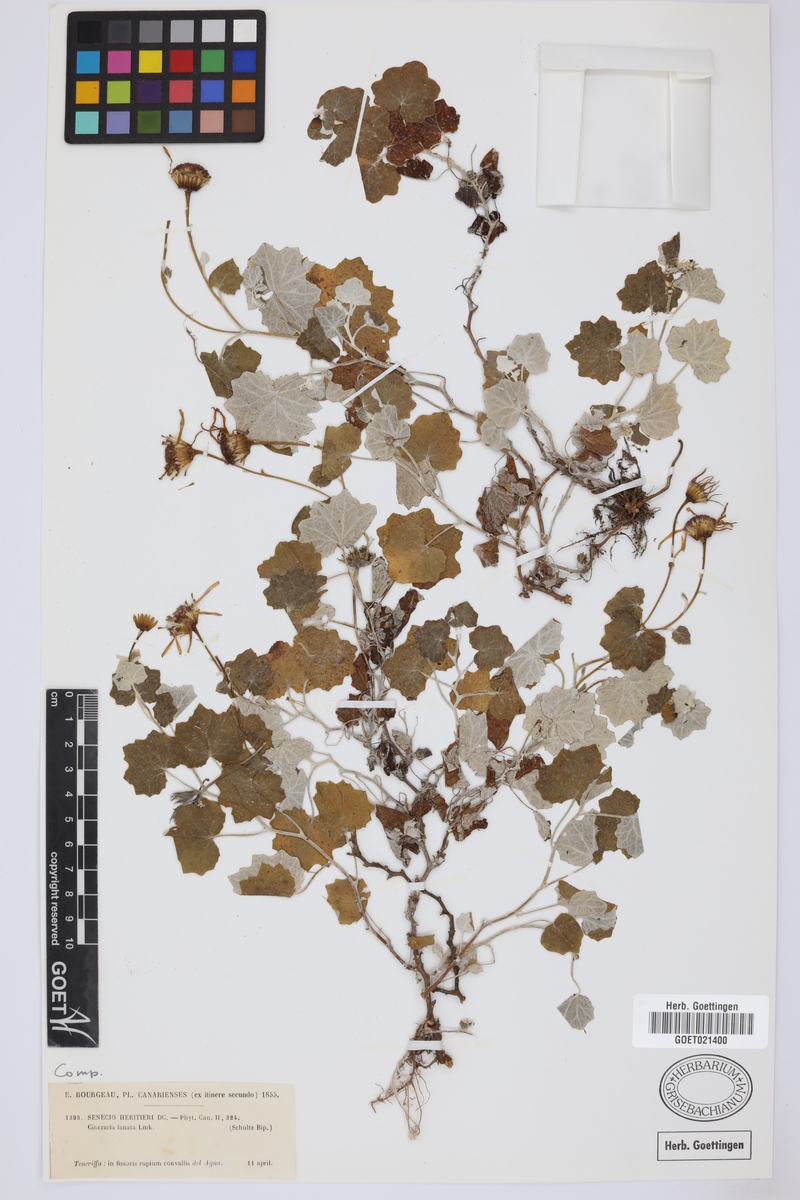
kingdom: Plantae
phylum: Tracheophyta
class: Magnoliopsida
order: Asterales
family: Asteraceae
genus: Pericallis
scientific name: Pericallis lanata
